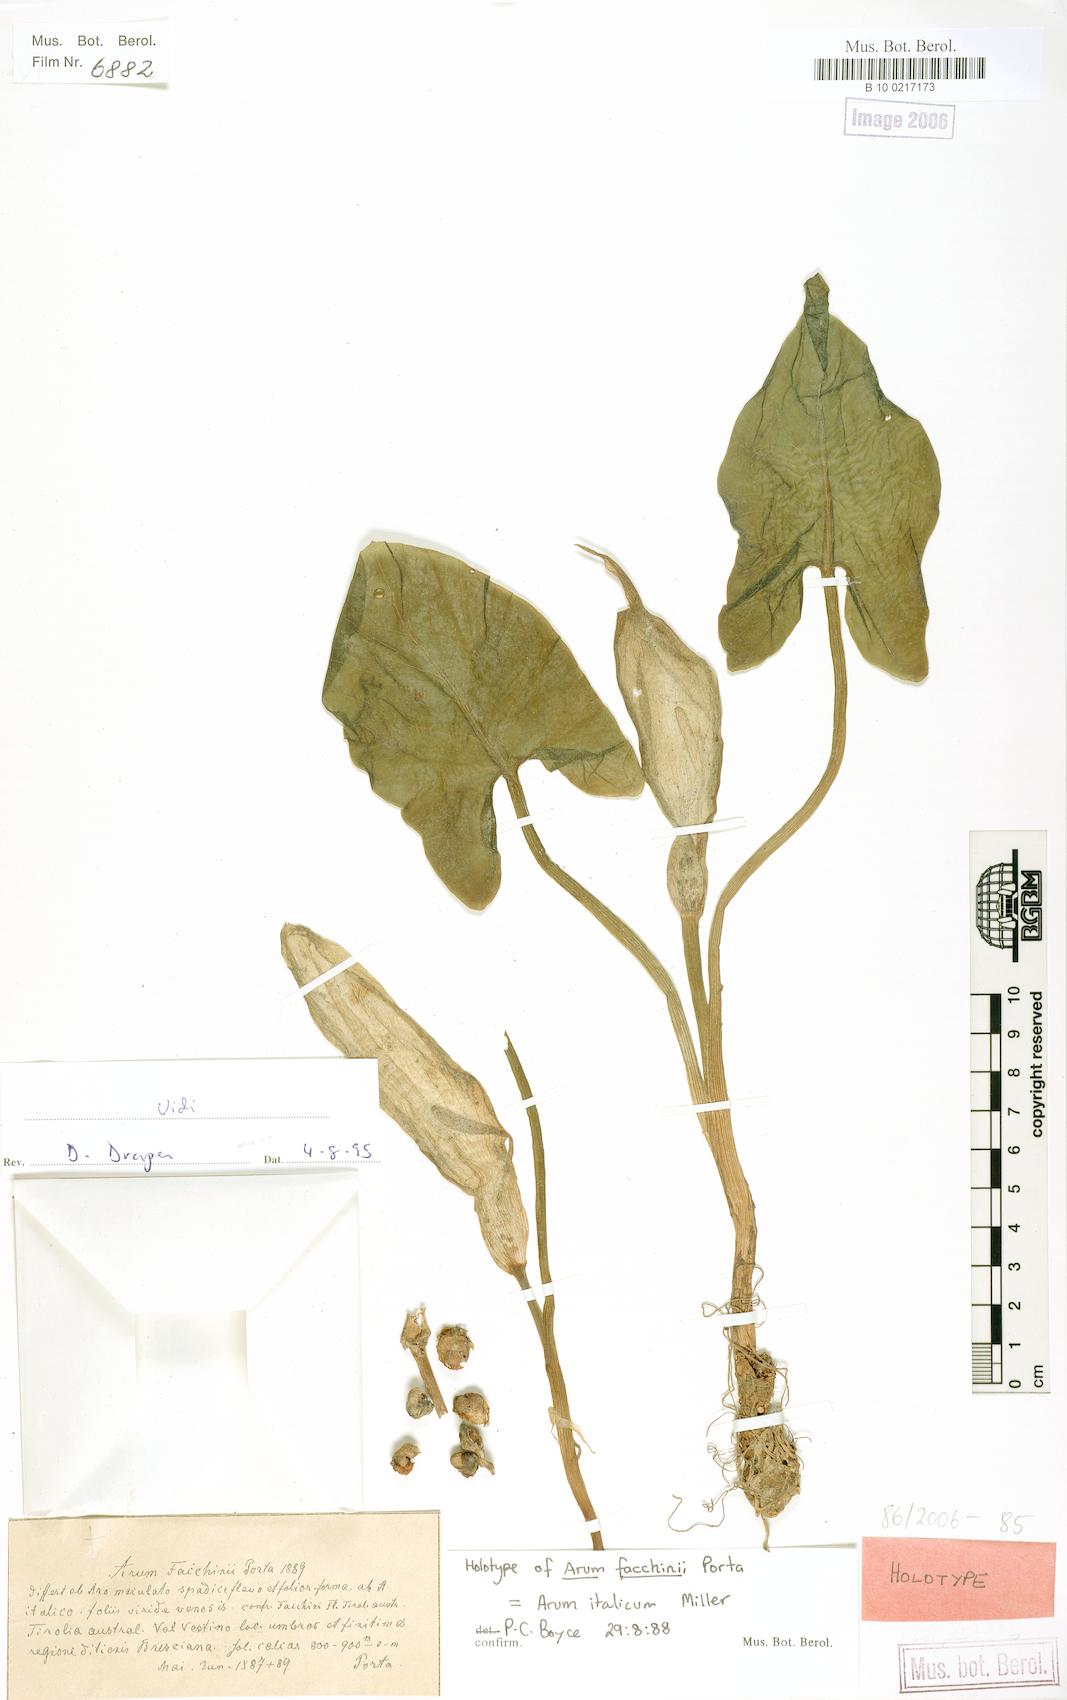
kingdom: Plantae
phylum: Tracheophyta
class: Liliopsida
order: Alismatales
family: Araceae
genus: Arum
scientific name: Arum italicum
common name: Italian lords-and-ladies
